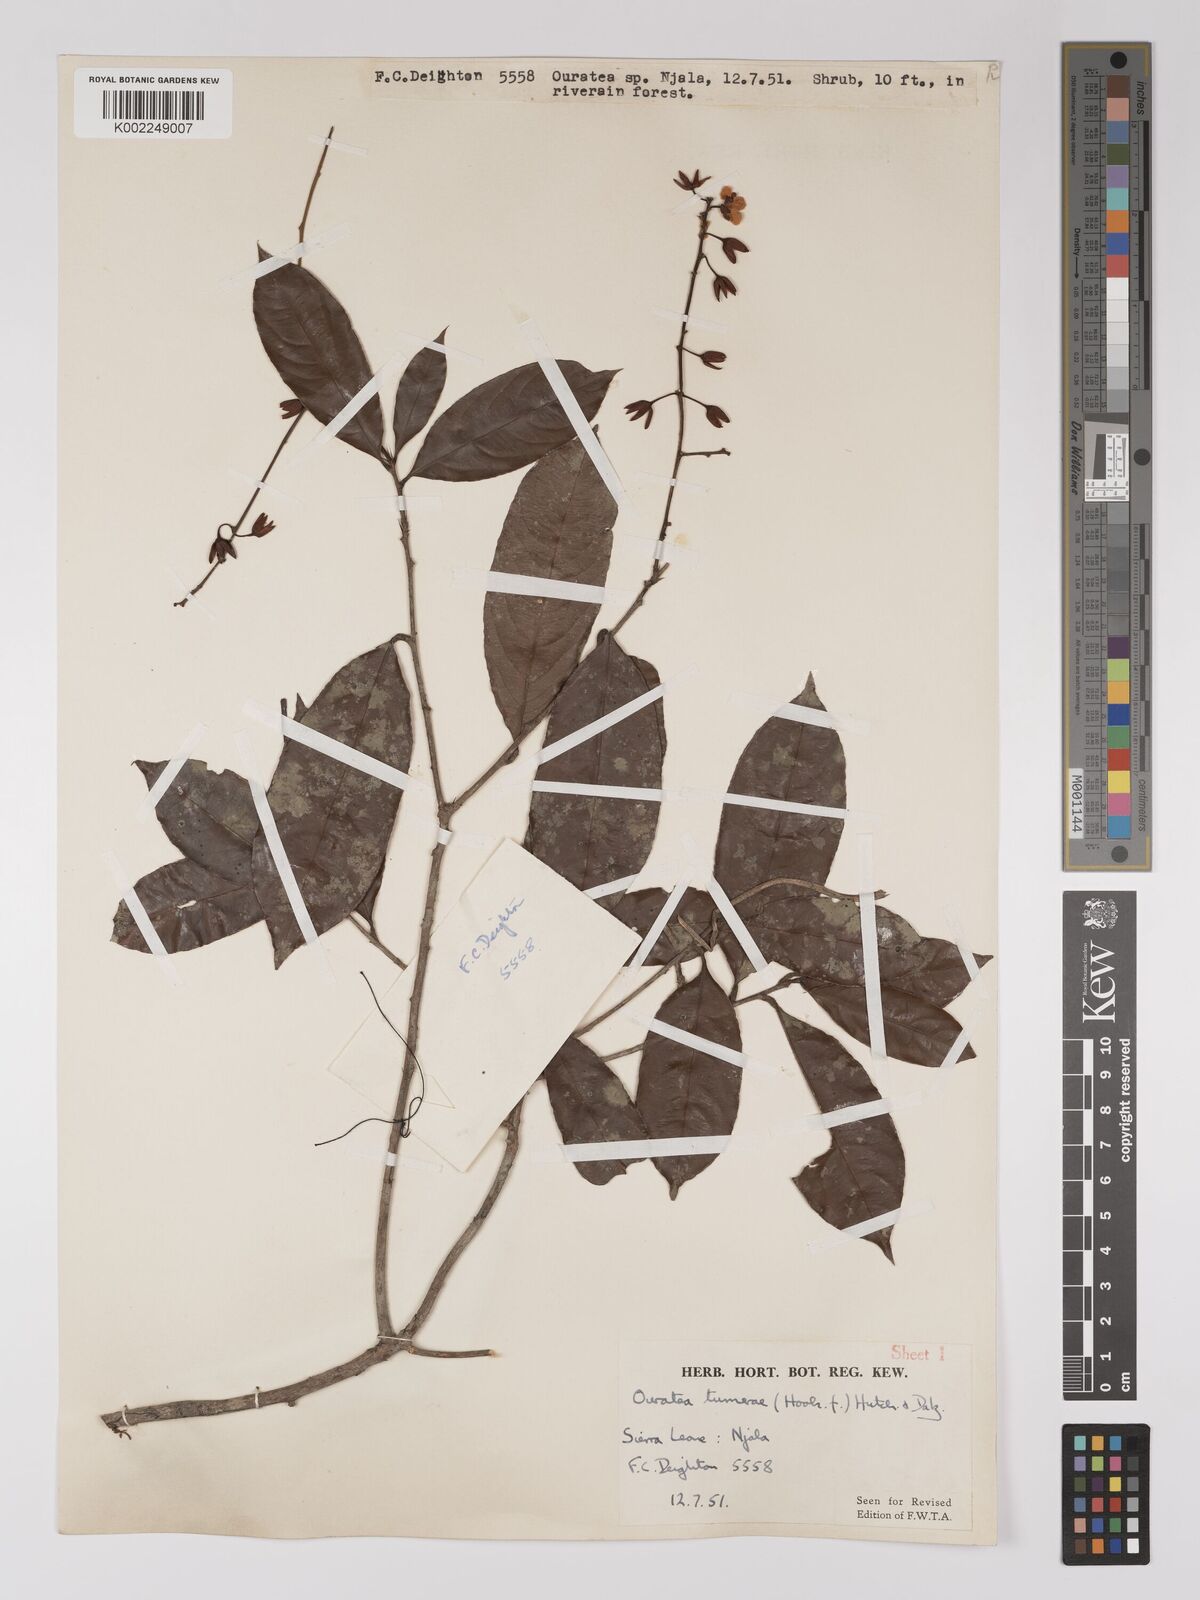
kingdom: Plantae
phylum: Tracheophyta
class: Magnoliopsida
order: Malpighiales
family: Ochnaceae
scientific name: Ochnaceae
